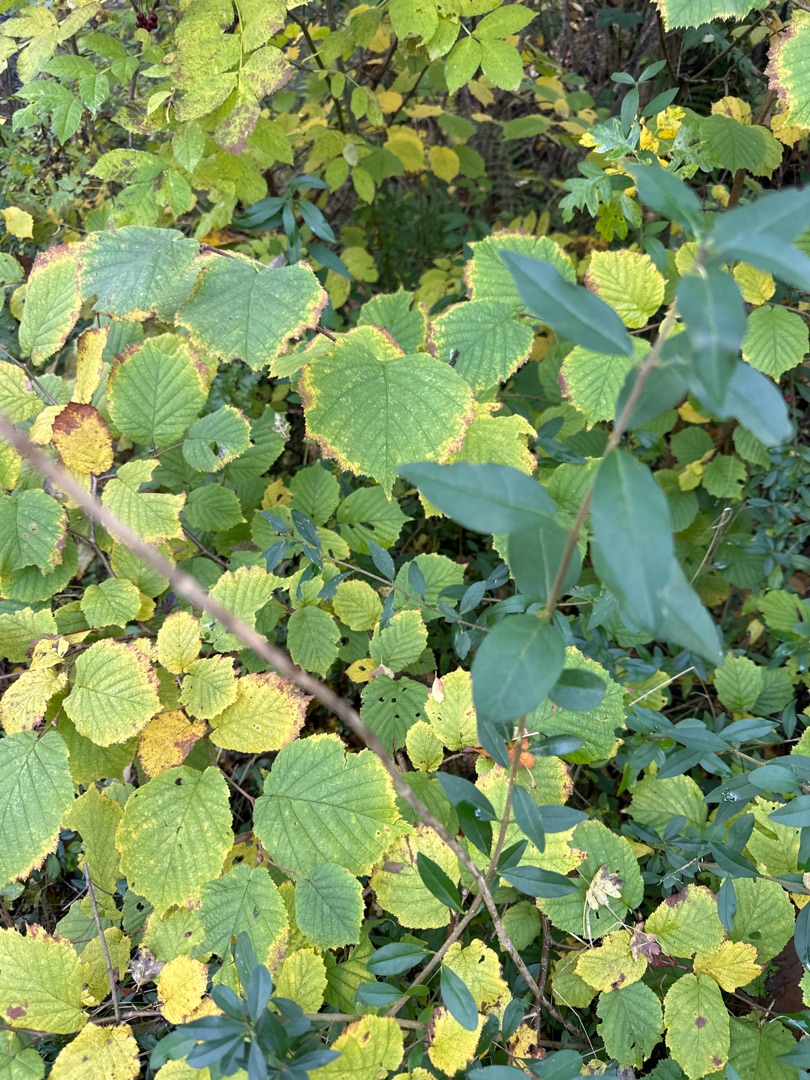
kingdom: Plantae
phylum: Tracheophyta
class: Magnoliopsida
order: Lamiales
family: Oleaceae
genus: Ligustrum
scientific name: Ligustrum vulgare
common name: Liguster
